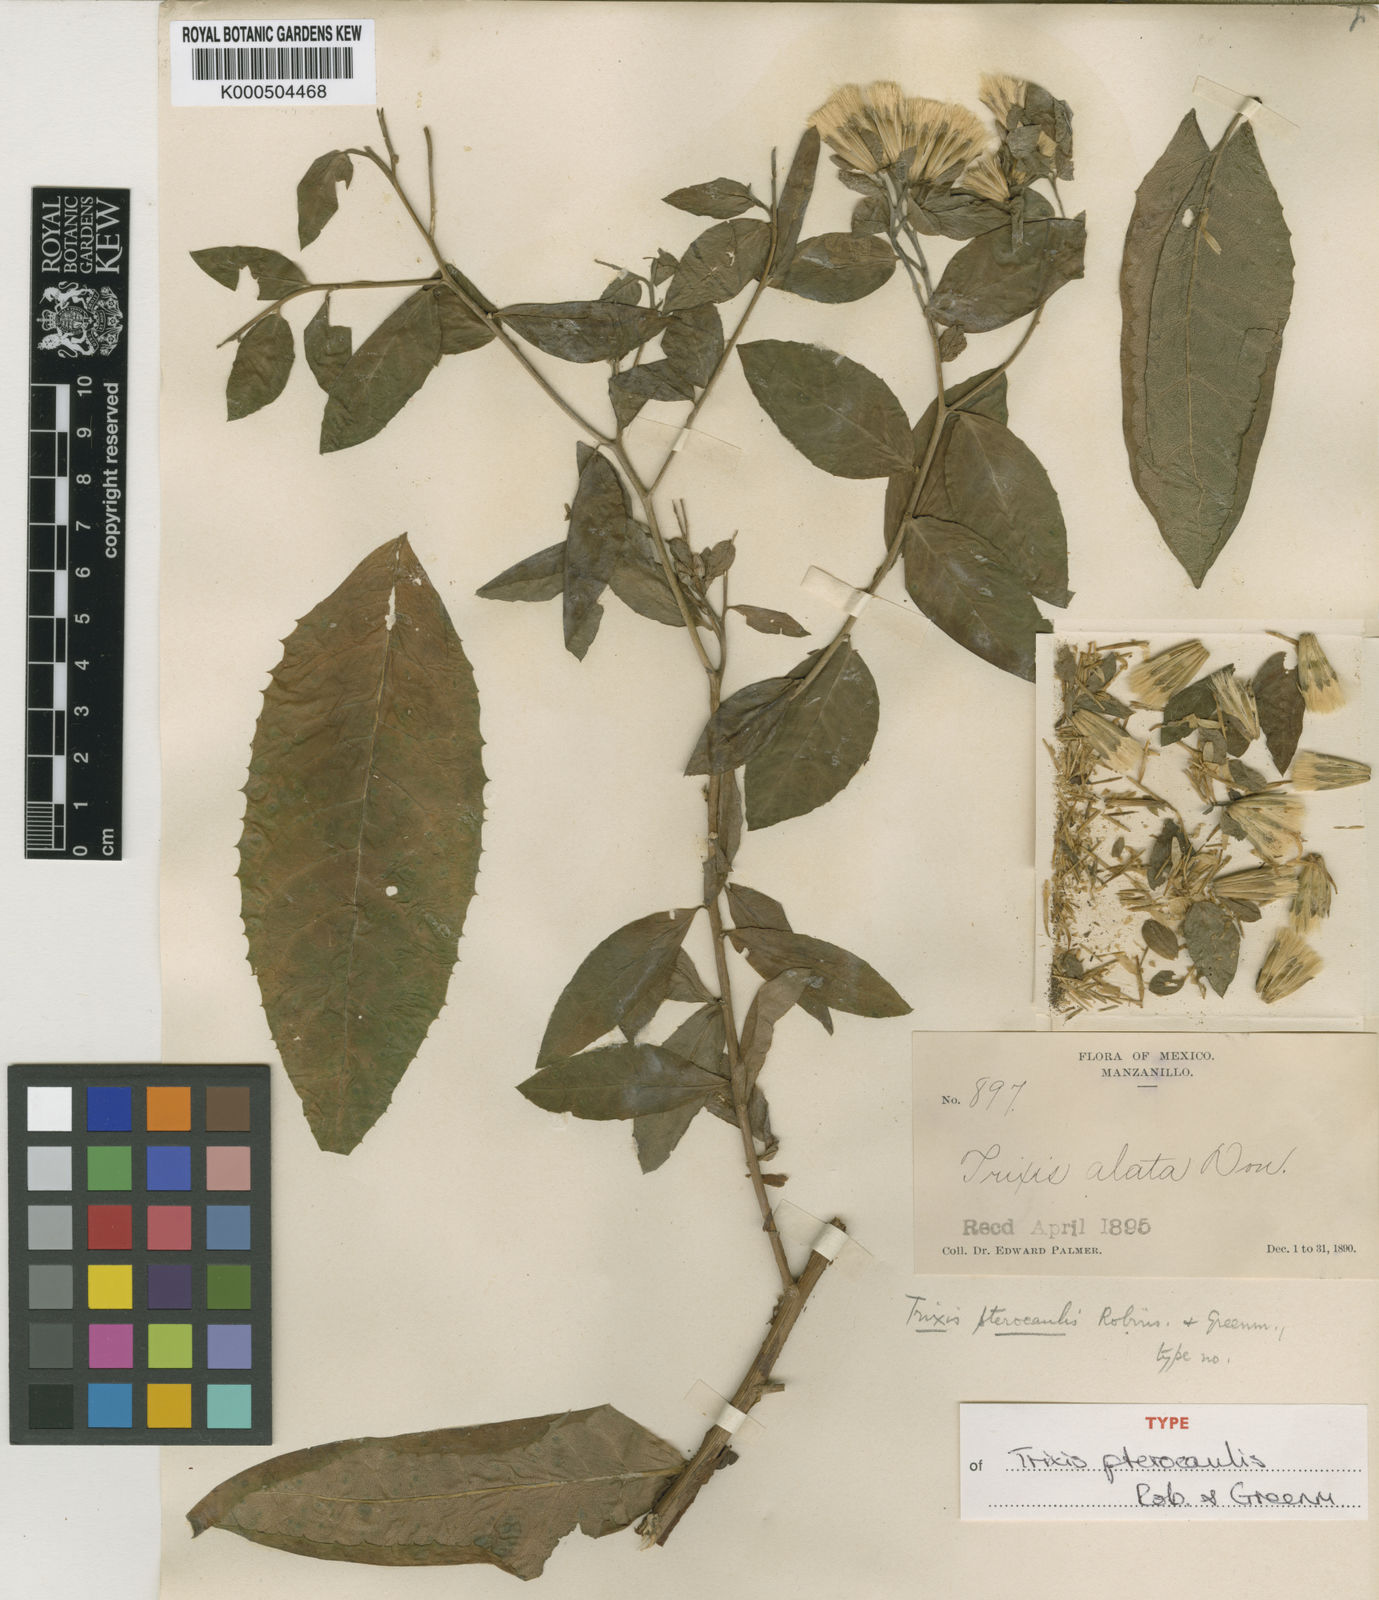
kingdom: Plantae
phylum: Tracheophyta
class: Magnoliopsida
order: Asterales
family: Asteraceae
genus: Trixis
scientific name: Trixis pterocaulis
